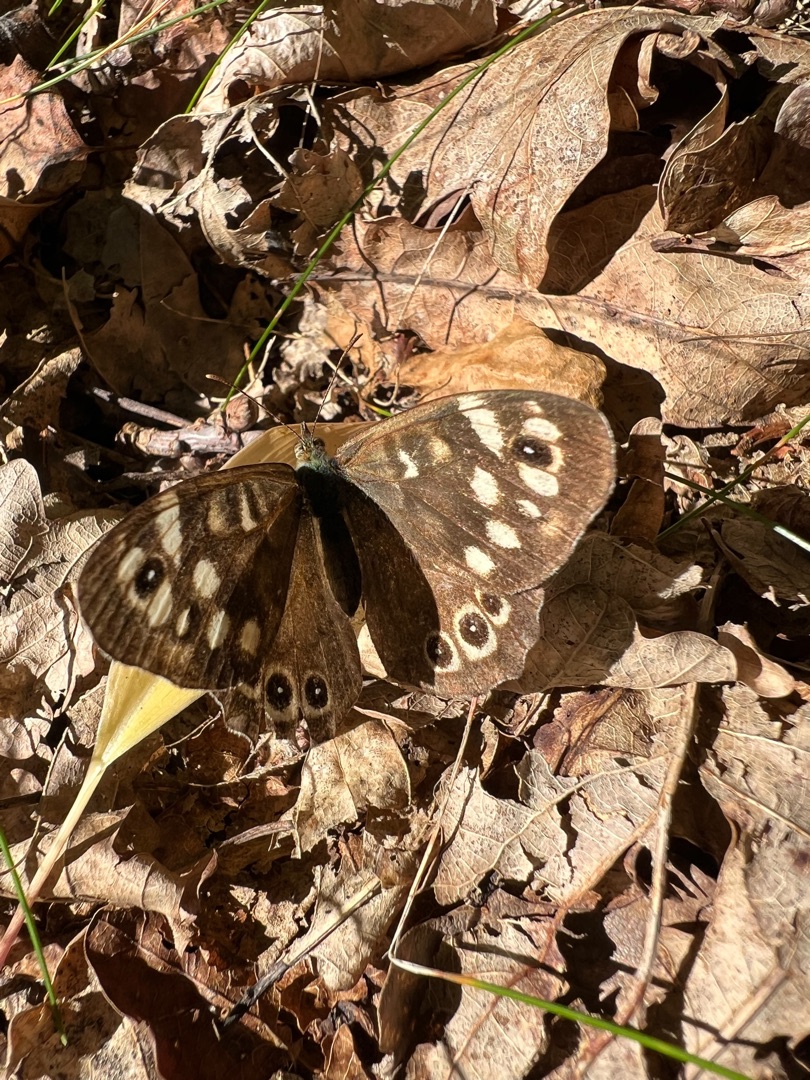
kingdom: Animalia
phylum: Arthropoda
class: Insecta
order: Lepidoptera
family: Nymphalidae
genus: Pararge
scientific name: Pararge aegeria
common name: Skovrandøje
